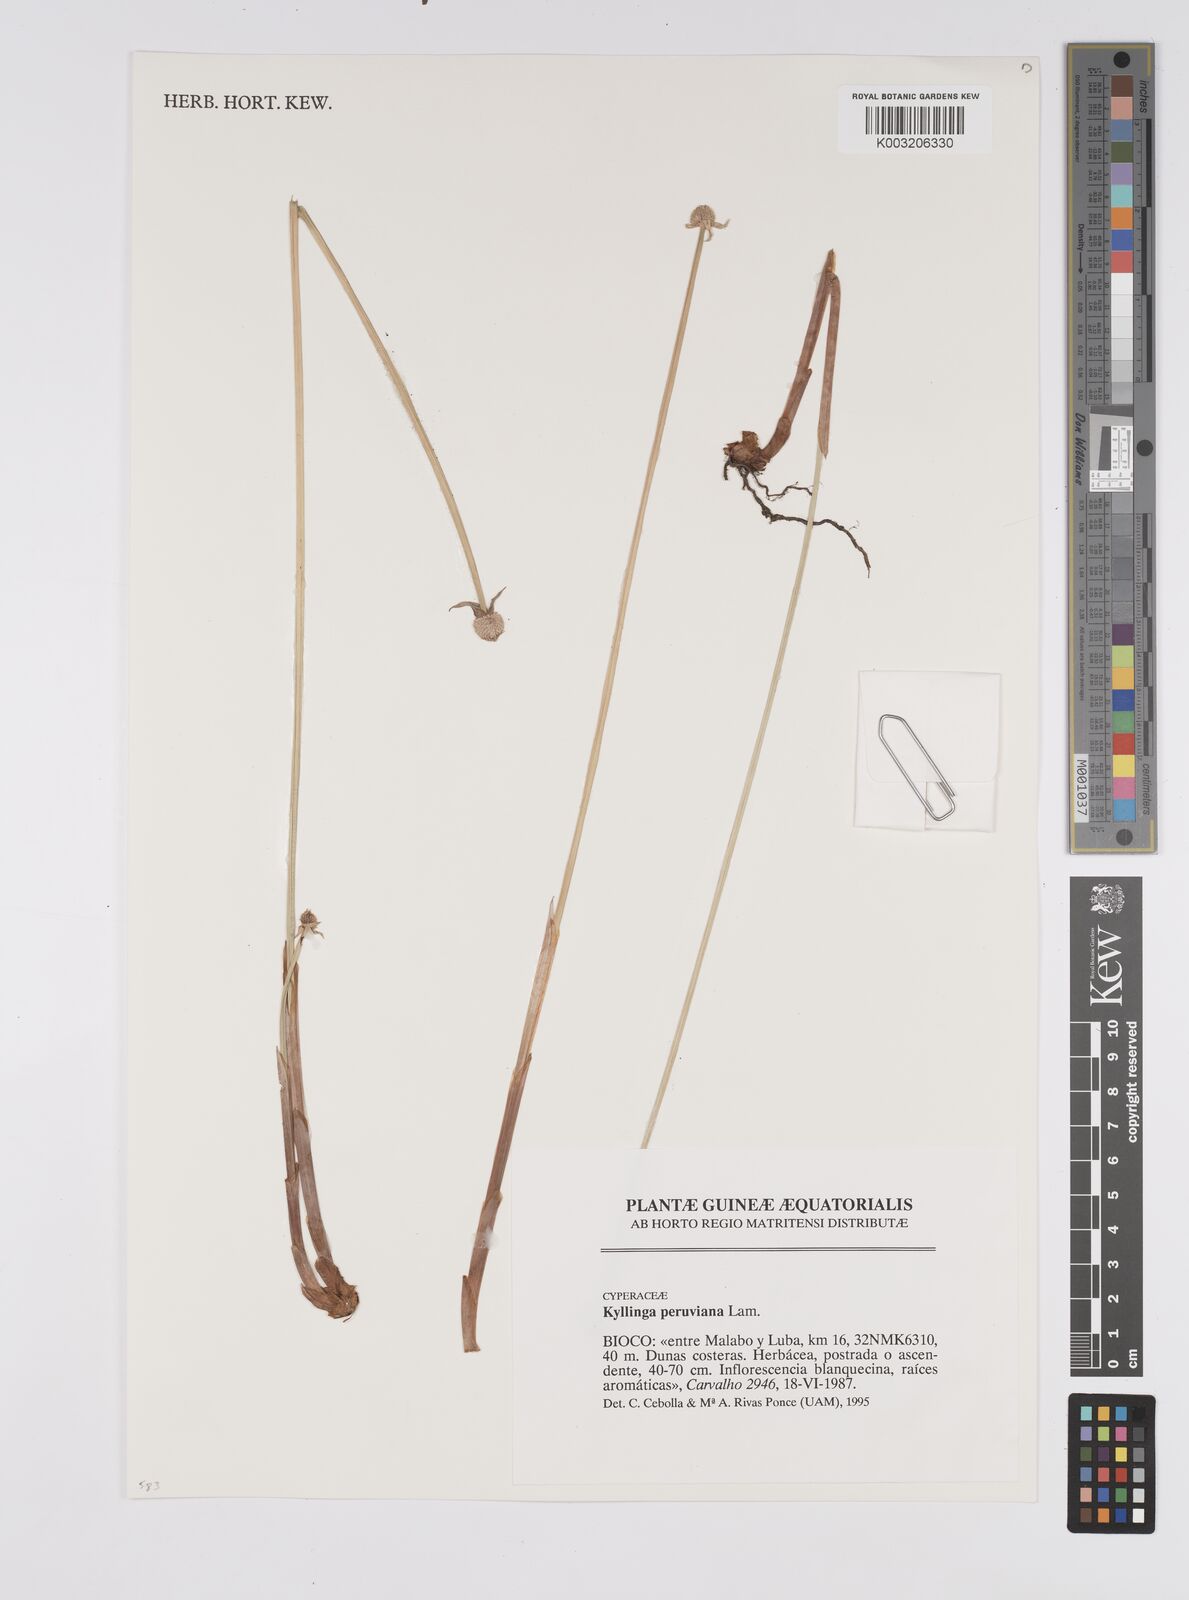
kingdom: Plantae
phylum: Tracheophyta
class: Liliopsida
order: Poales
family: Cyperaceae
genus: Cyperus
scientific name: Cyperus
